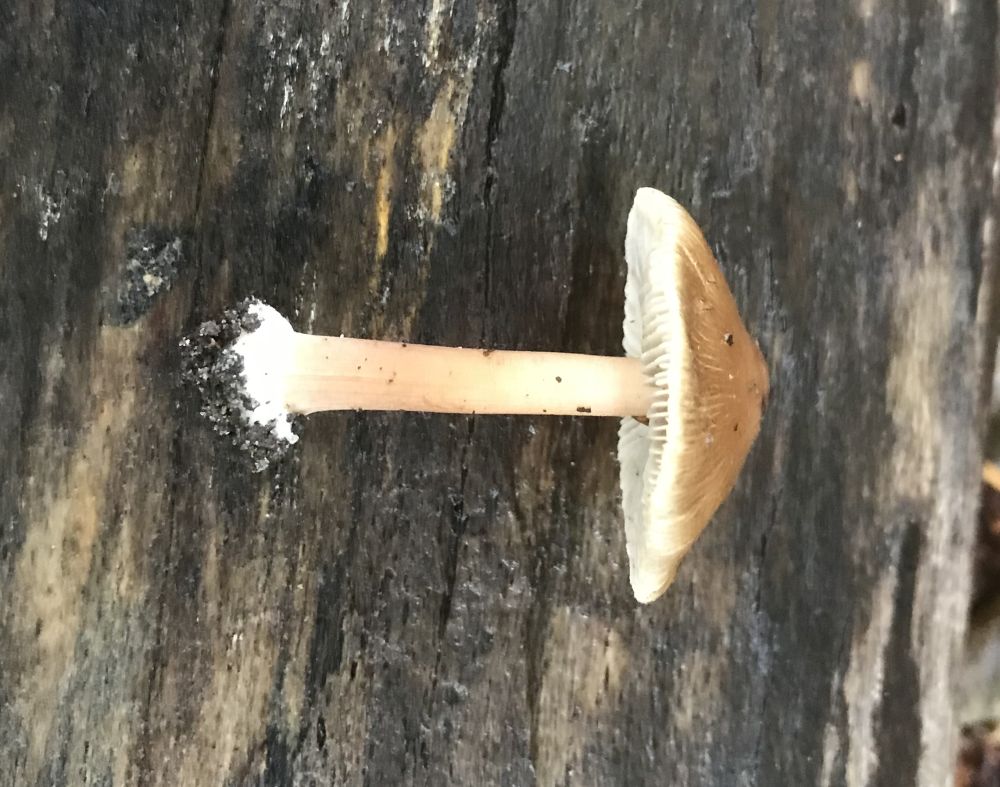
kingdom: Fungi
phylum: Basidiomycota
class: Agaricomycetes
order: Agaricales
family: Inocybaceae
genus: Inocybe
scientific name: Inocybe
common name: trævlhat
